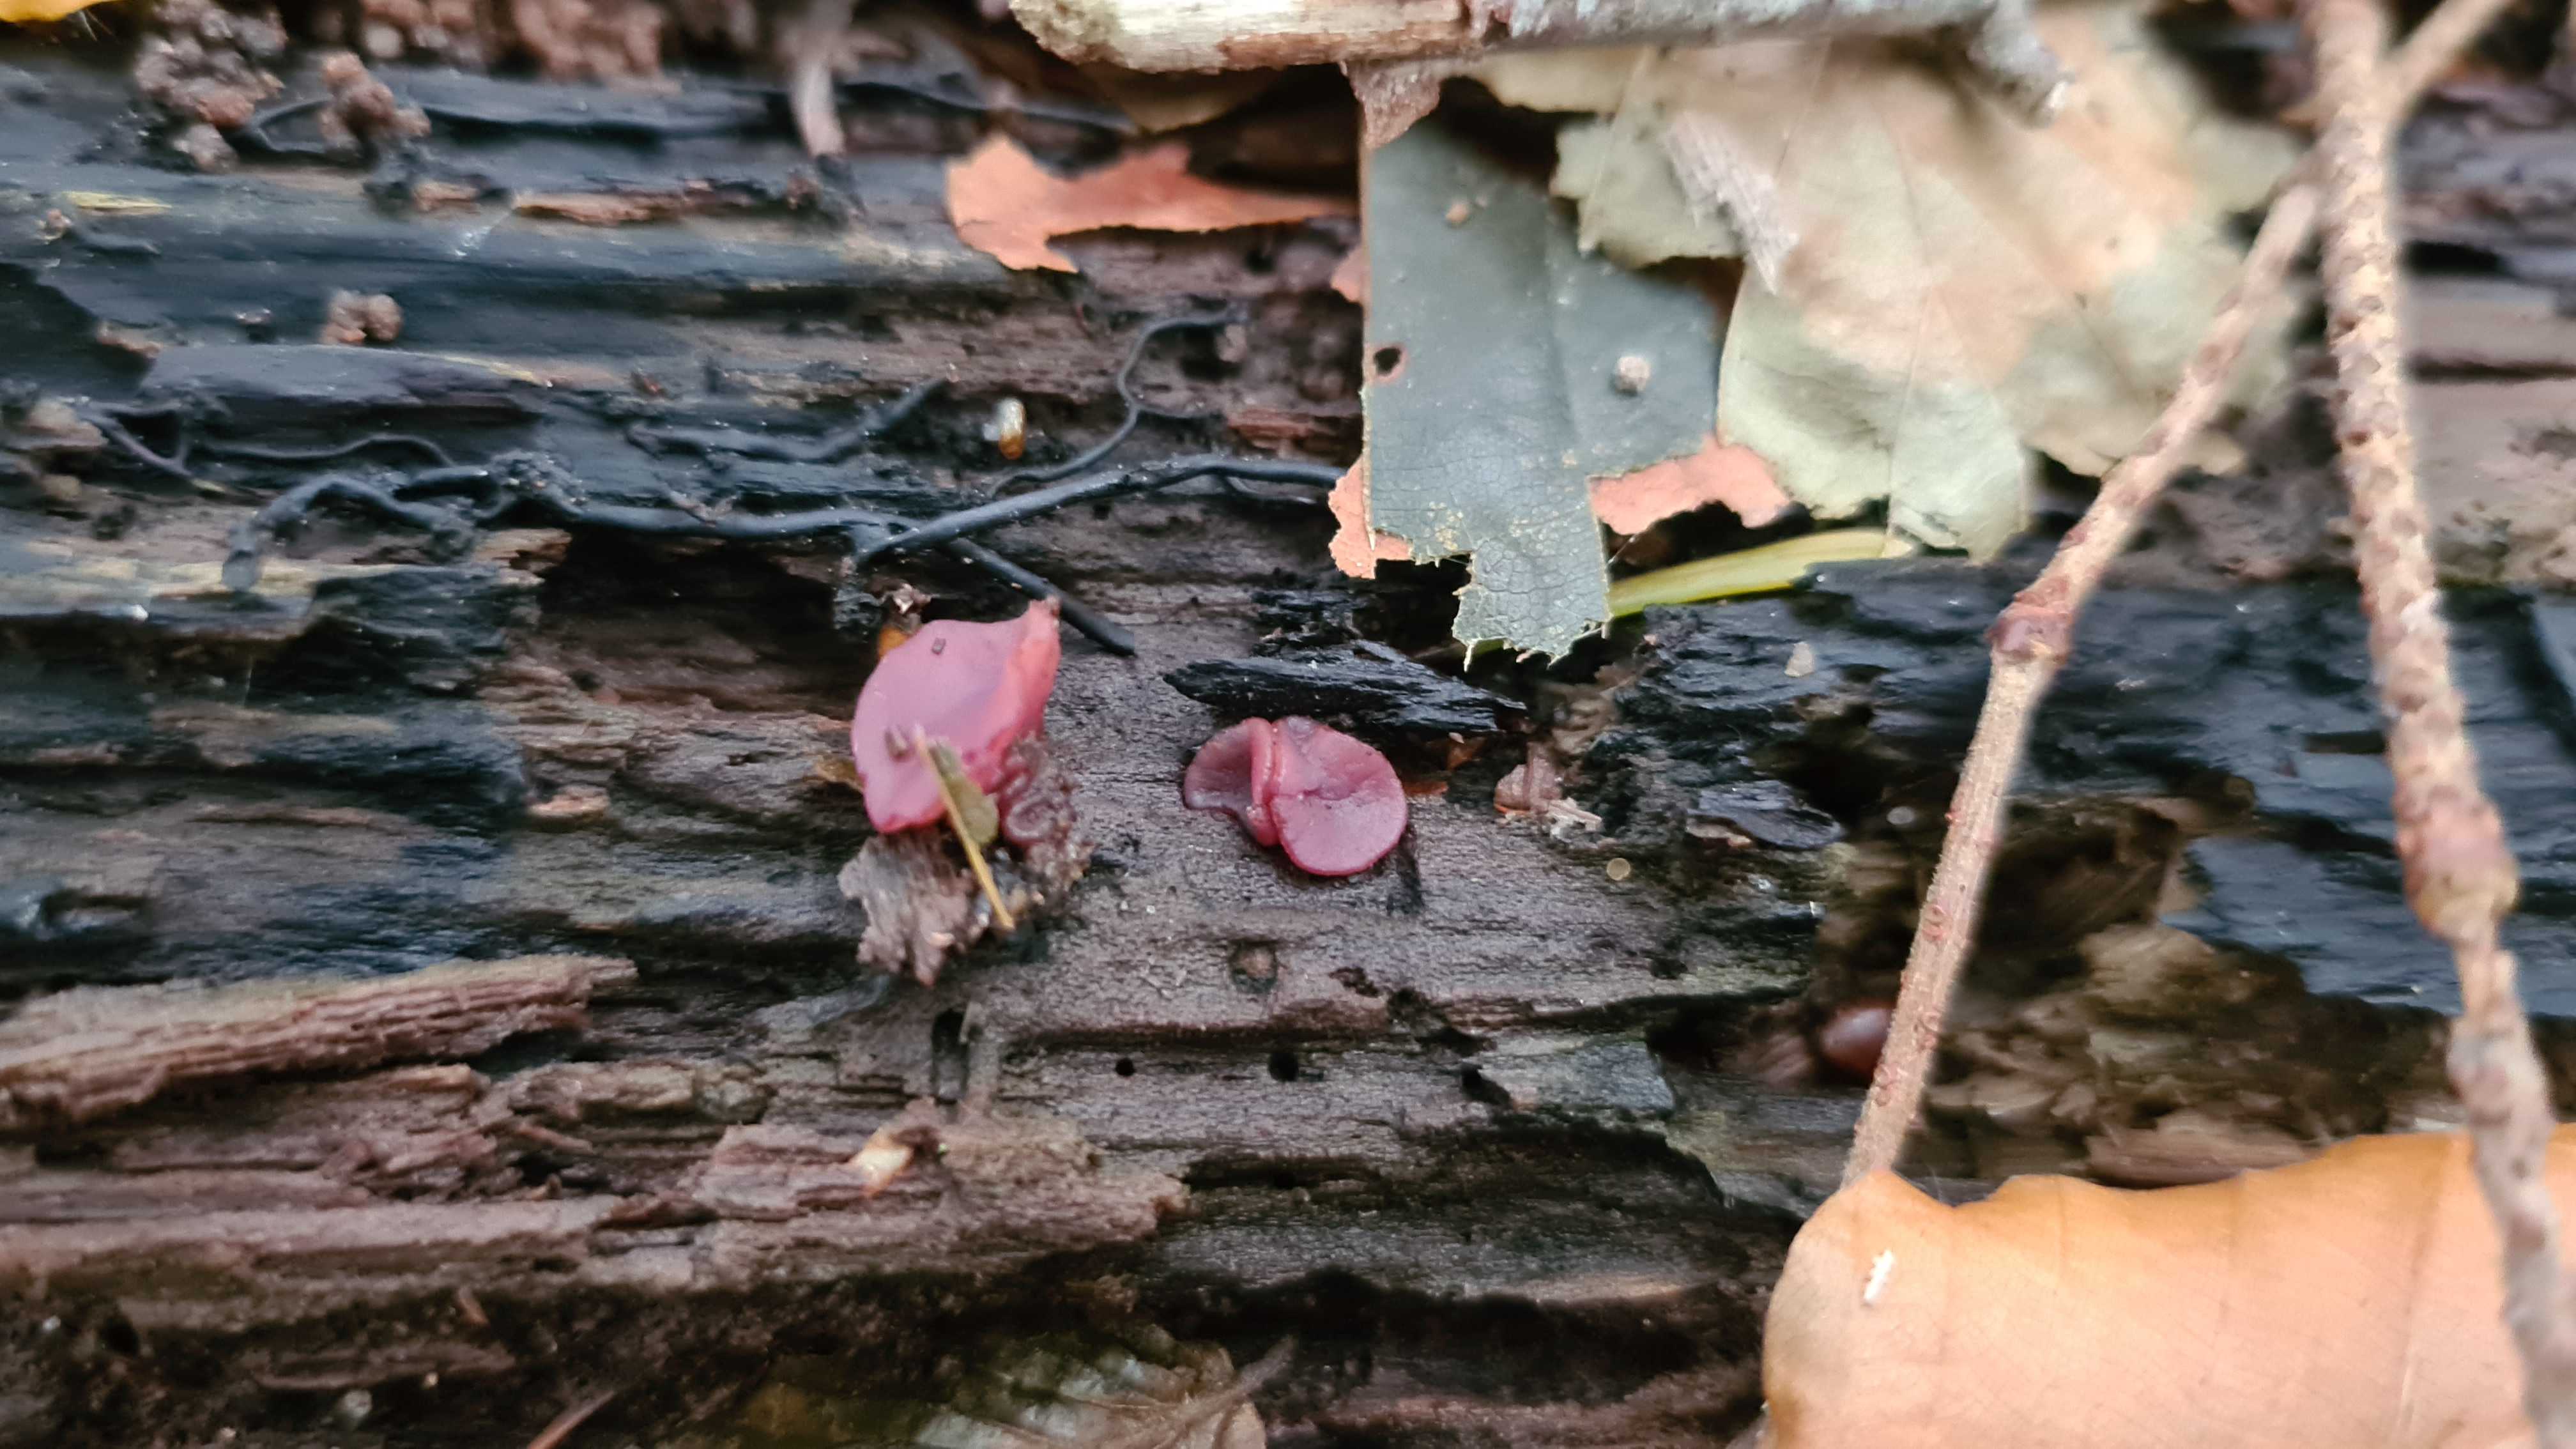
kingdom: Fungi
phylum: Ascomycota
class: Leotiomycetes
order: Helotiales
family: Gelatinodiscaceae
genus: Ascocoryne
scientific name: Ascocoryne cylichnium
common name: stor sejskive
